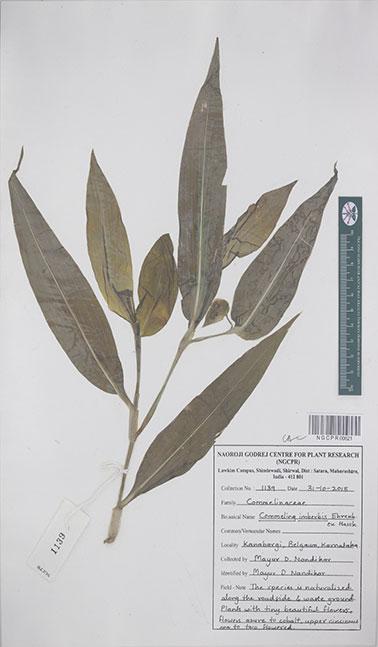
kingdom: Plantae
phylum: Tracheophyta
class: Liliopsida
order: Commelinales
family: Commelinaceae
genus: Commelina
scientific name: Commelina imberbis
